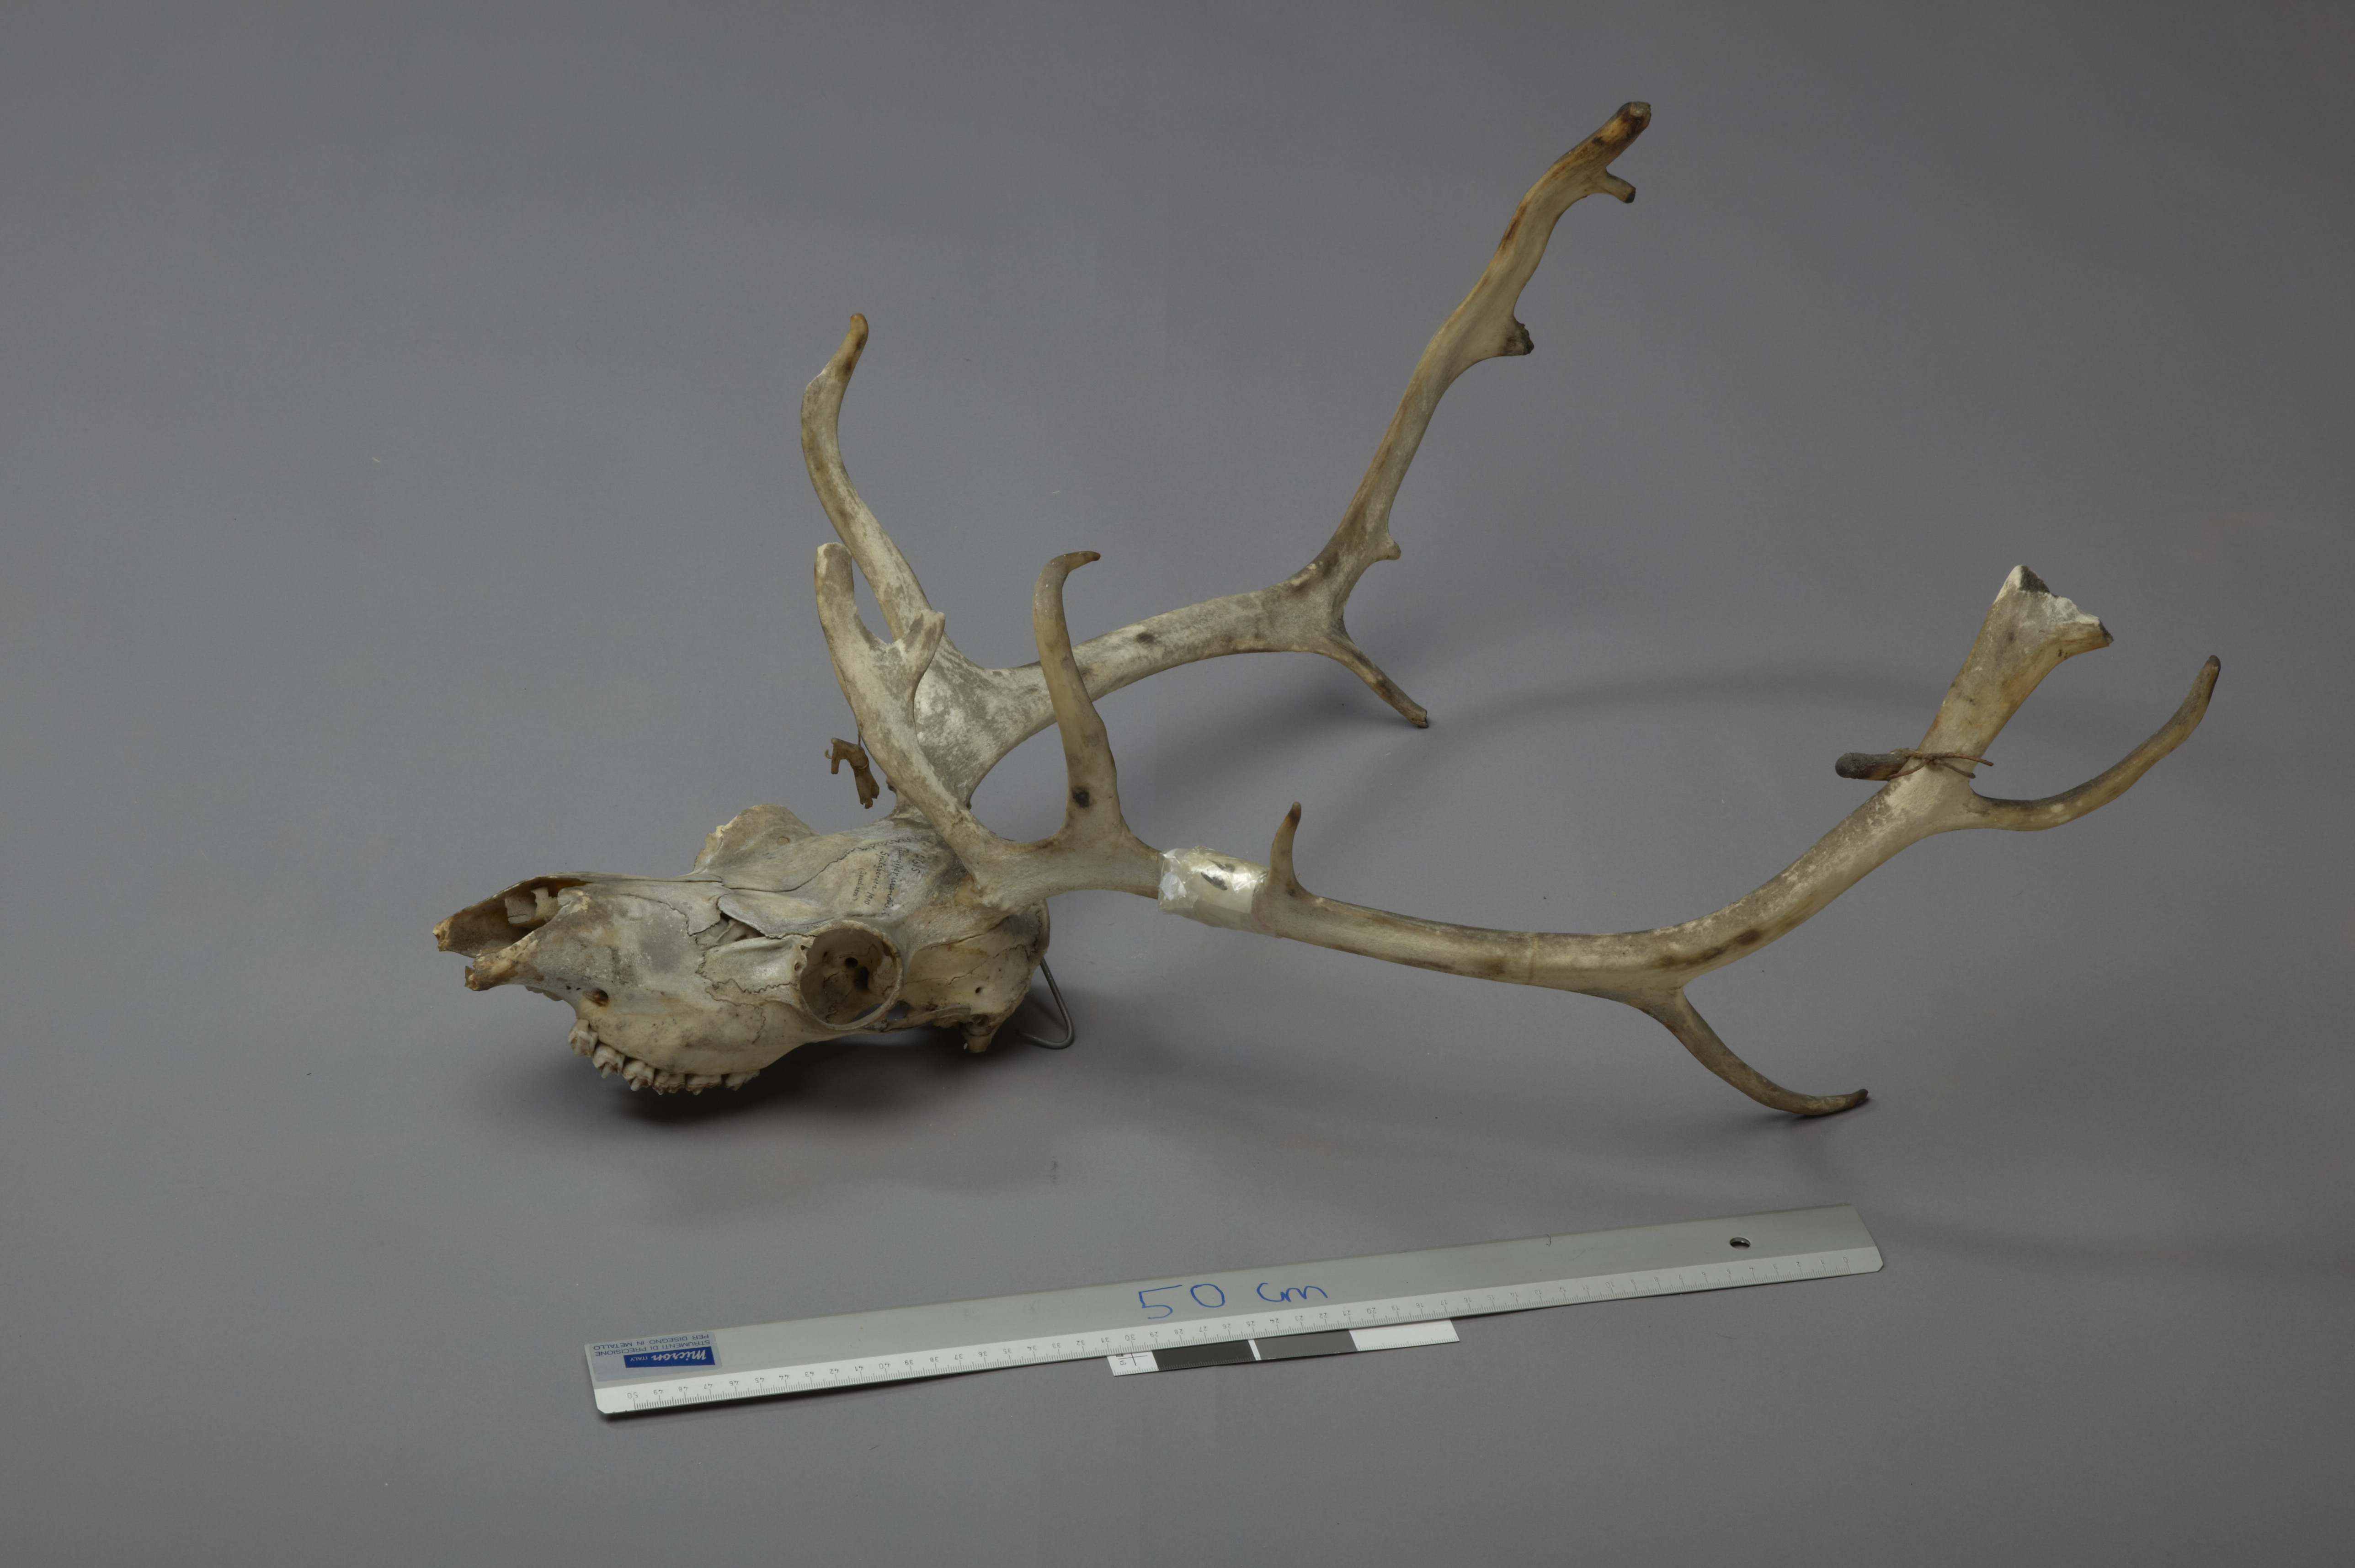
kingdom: Animalia
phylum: Chordata
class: Mammalia
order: Artiodactyla
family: Cervidae
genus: Rangifer
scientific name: Rangifer tarandus
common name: Reindeer
